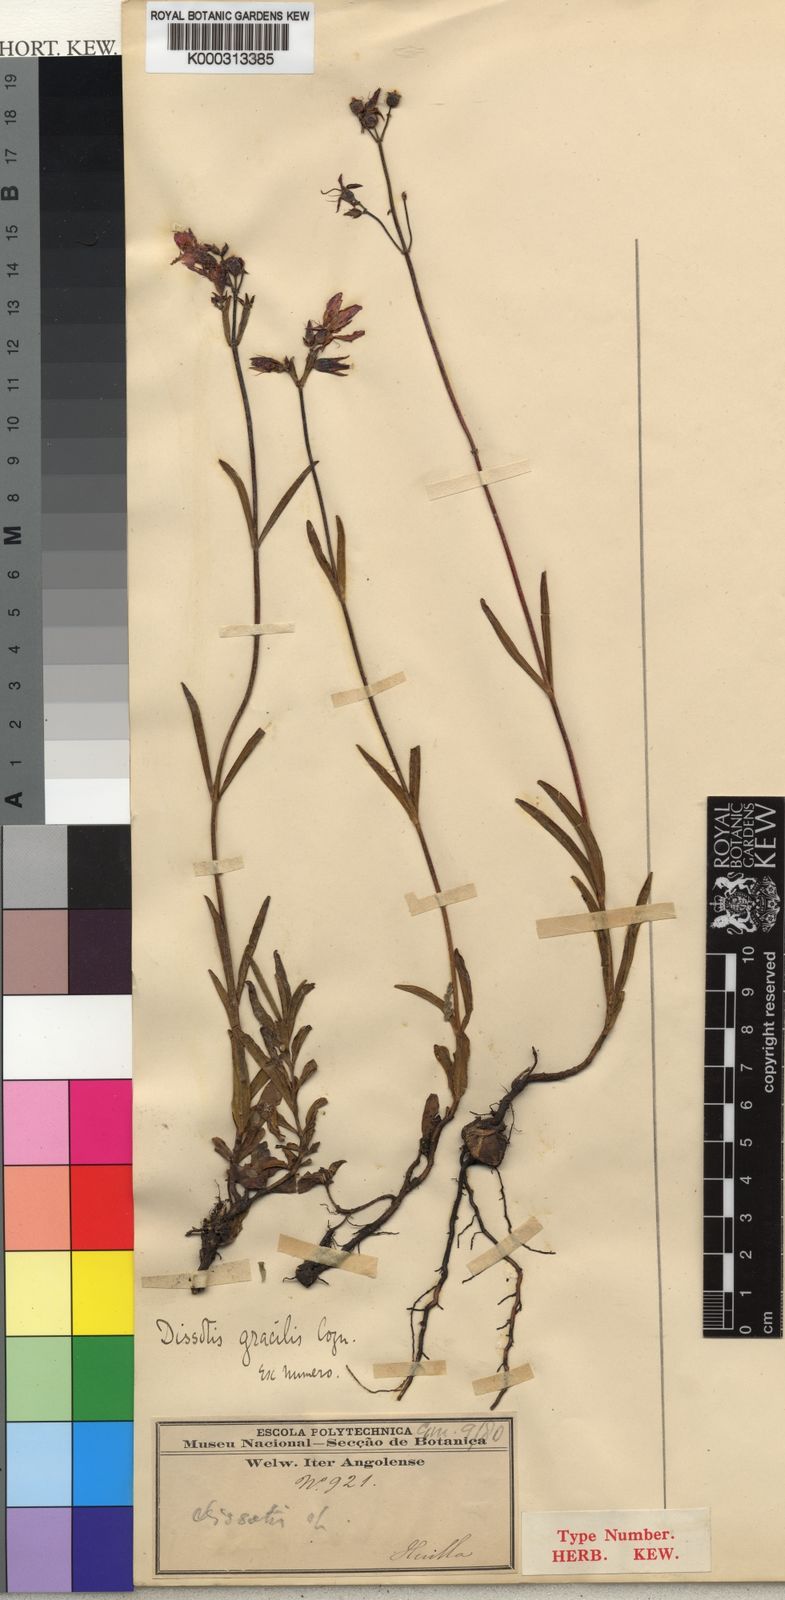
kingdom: Plantae
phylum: Tracheophyta
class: Magnoliopsida
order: Myrtales
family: Melastomataceae
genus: Antherotoma
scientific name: Antherotoma
